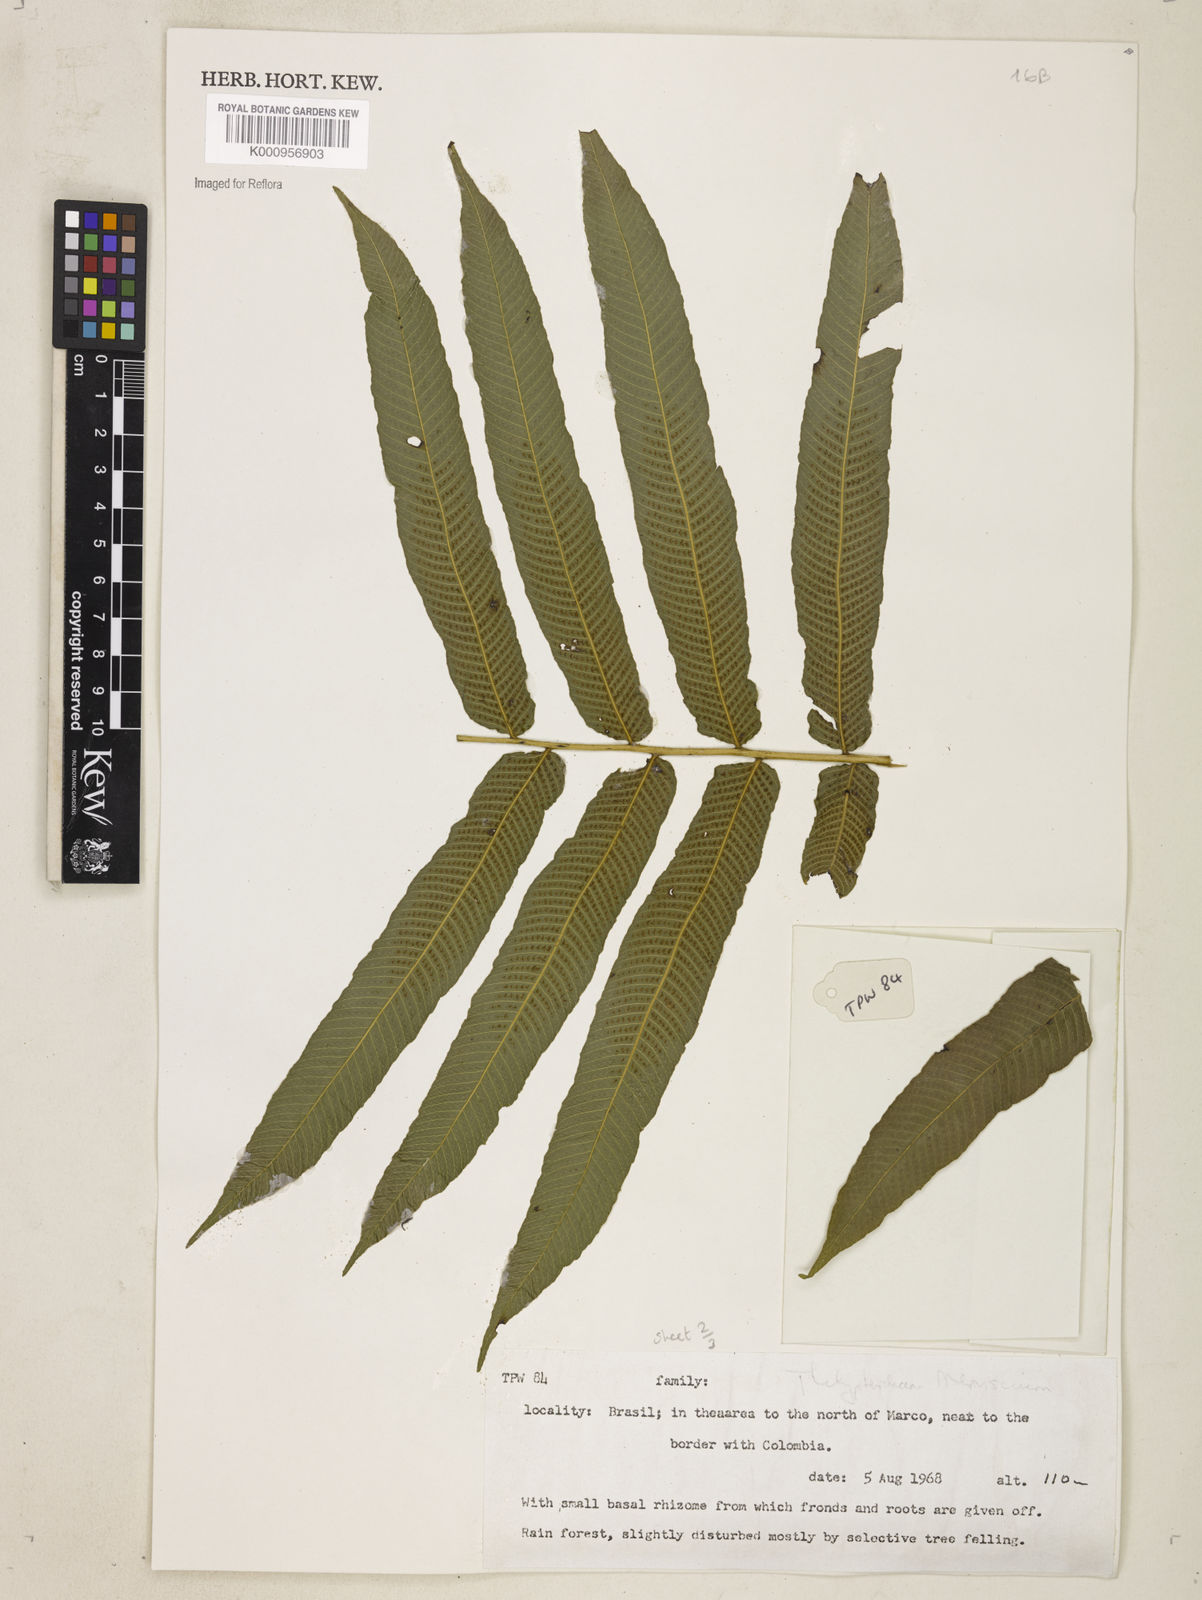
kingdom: Plantae
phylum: Tracheophyta
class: Polypodiopsida
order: Polypodiales
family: Thelypteridaceae
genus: Meniscium
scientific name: Meniscium
